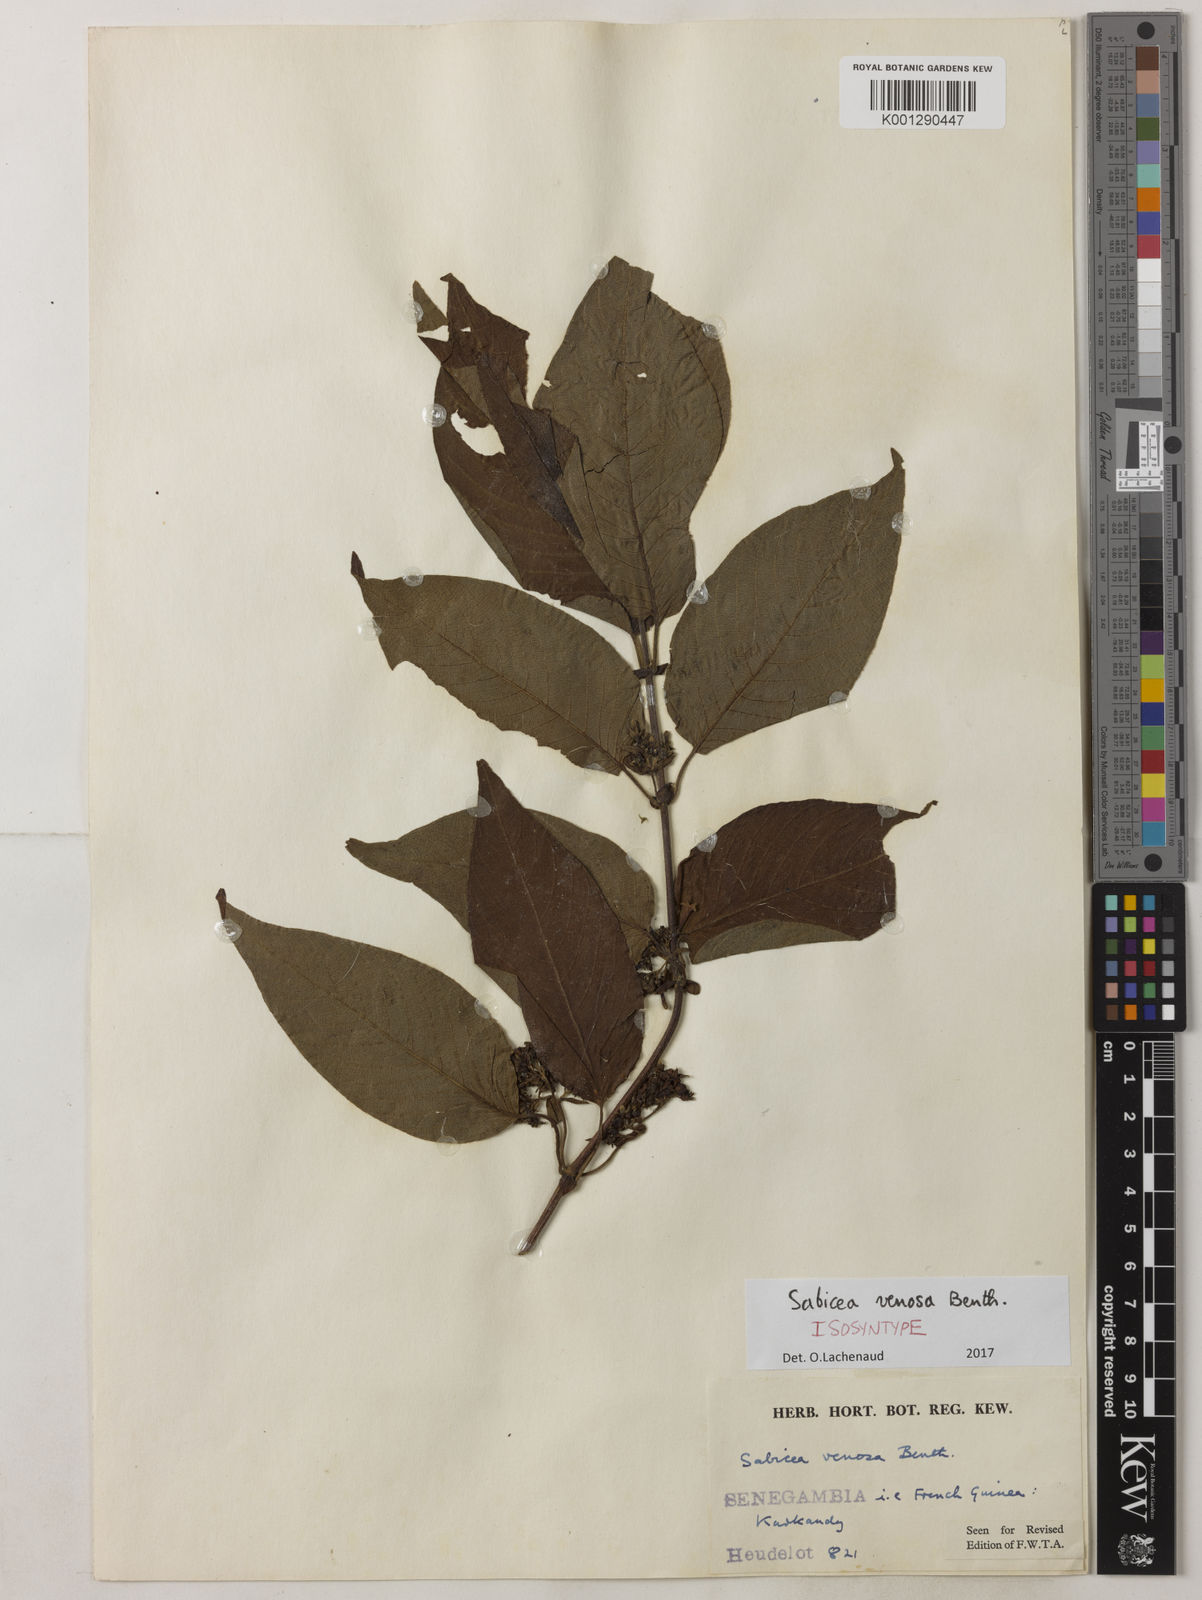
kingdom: Plantae
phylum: Tracheophyta
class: Magnoliopsida
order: Gentianales
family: Rubiaceae
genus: Sabicea
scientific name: Sabicea venosa
